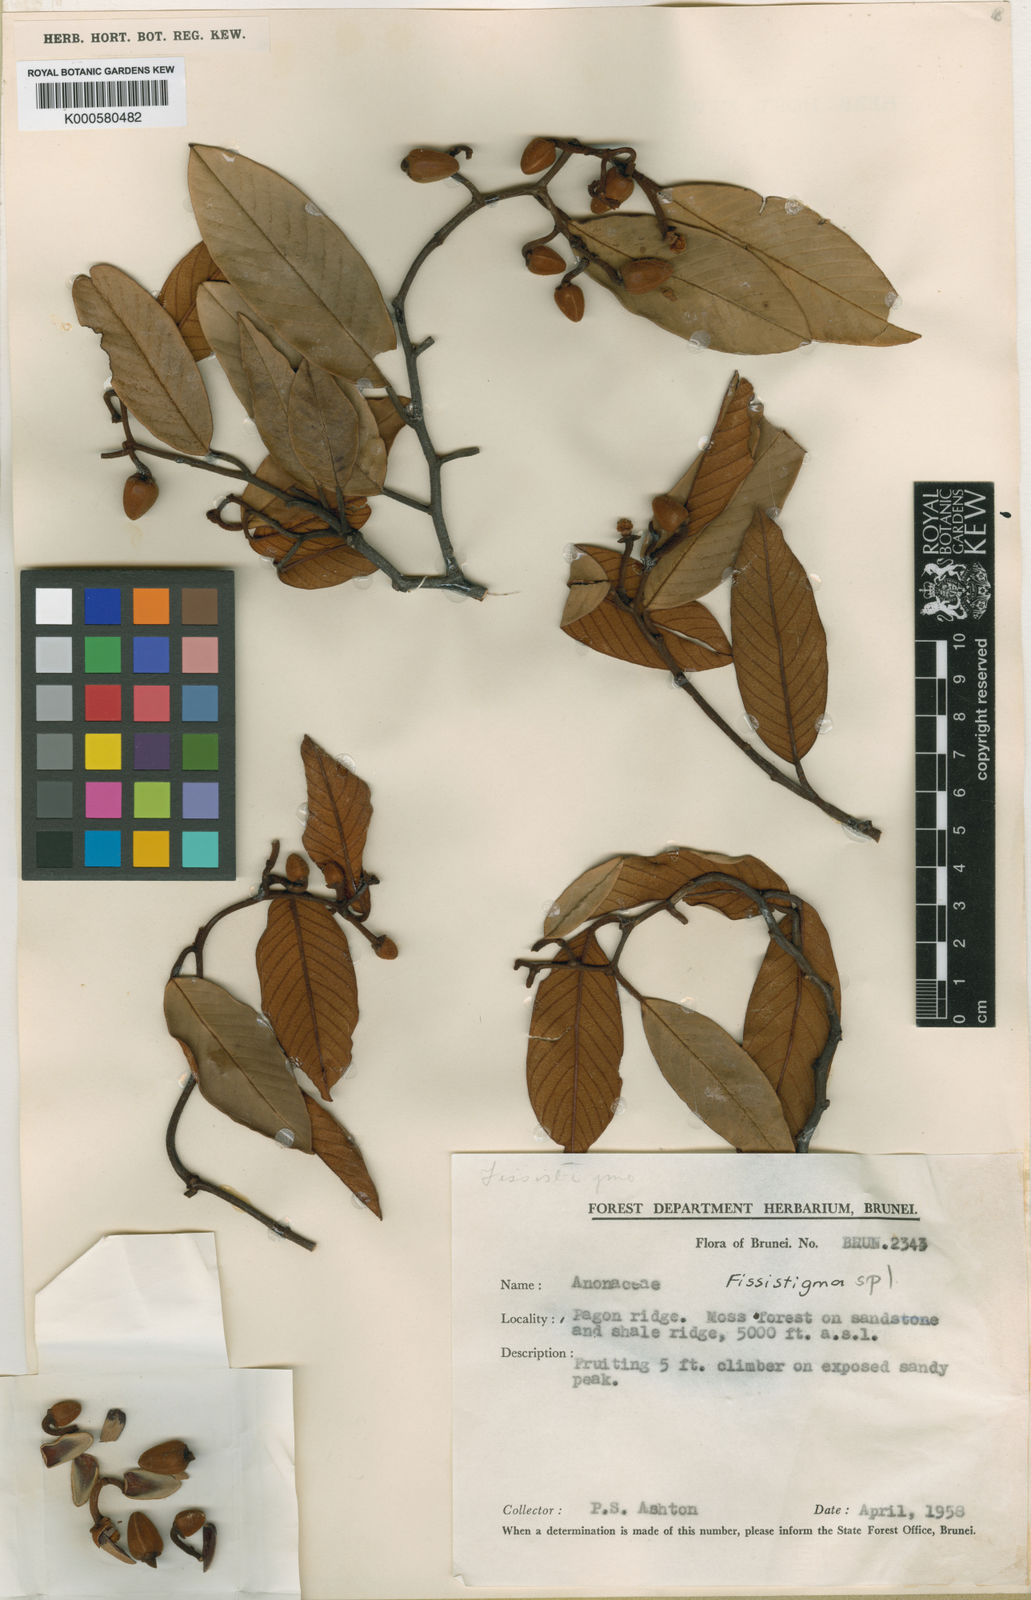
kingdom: Plantae
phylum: Tracheophyta
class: Magnoliopsida
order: Magnoliales
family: Annonaceae
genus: Fissistigma
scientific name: Fissistigma montanum
